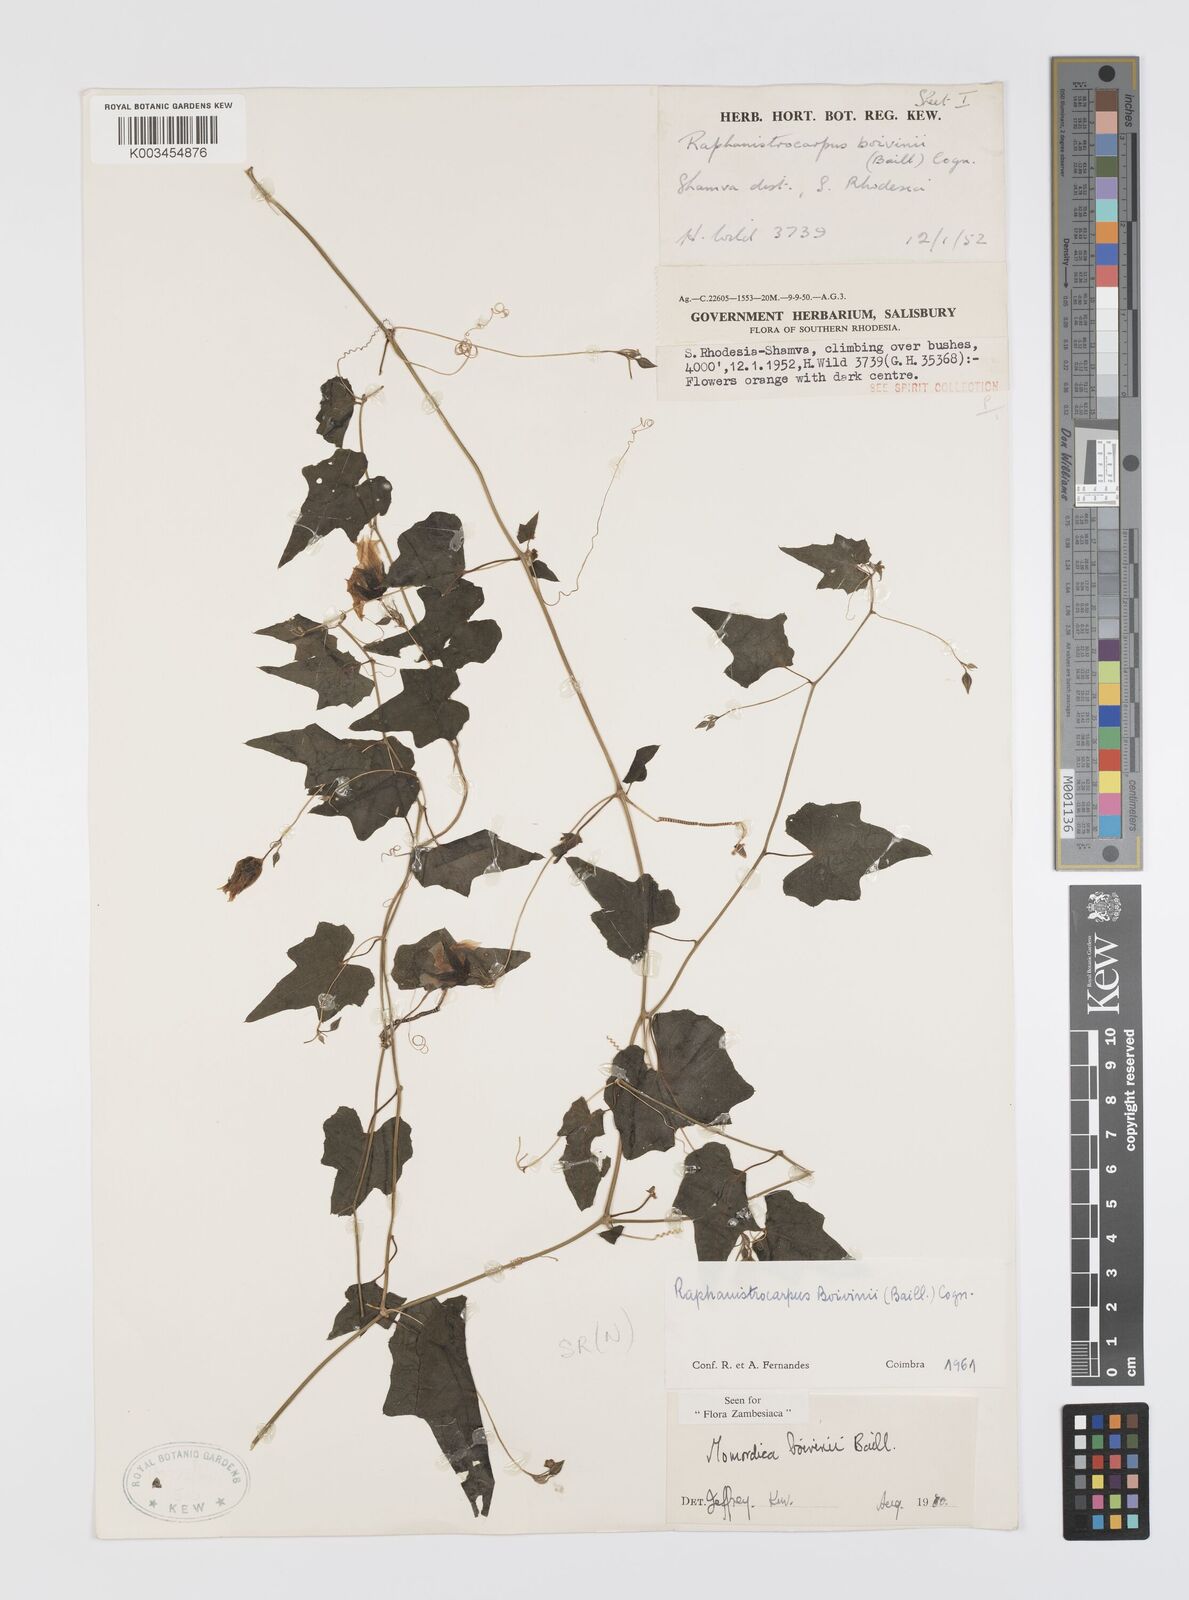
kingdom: Plantae
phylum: Tracheophyta
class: Magnoliopsida
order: Cucurbitales
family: Cucurbitaceae
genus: Momordica
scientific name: Momordica boivinii
